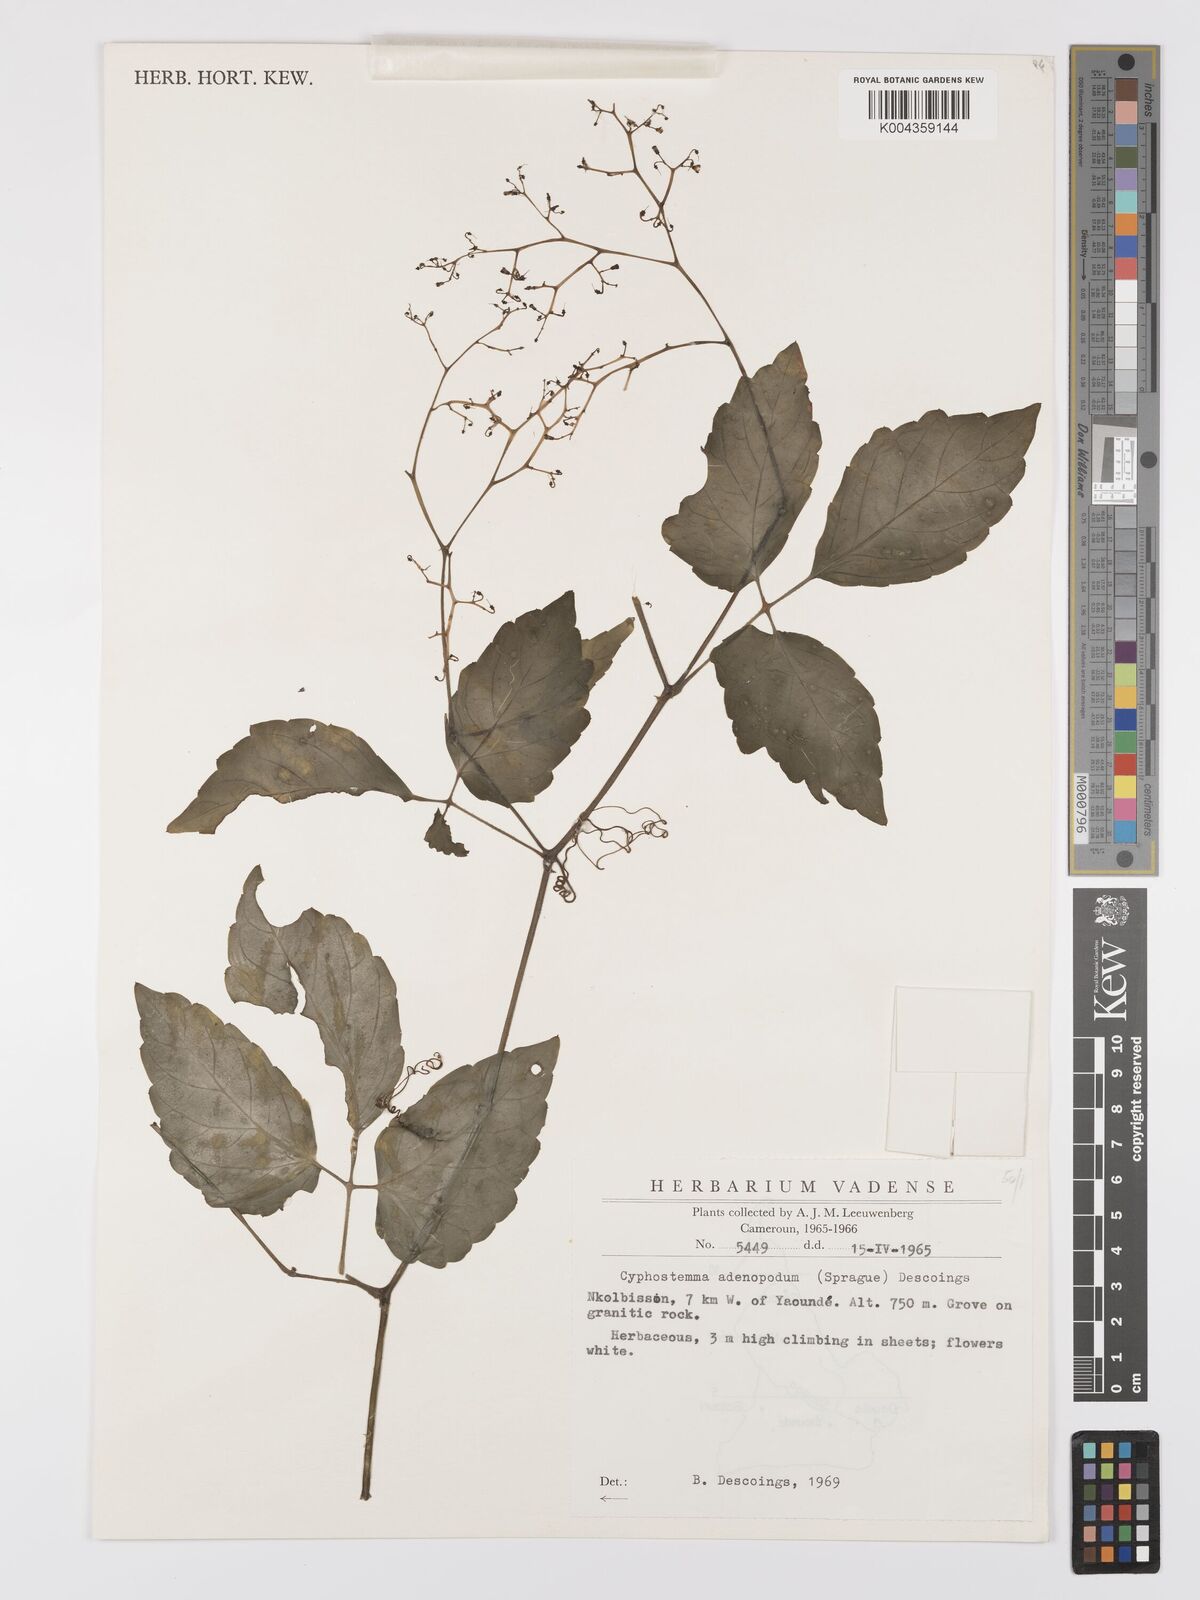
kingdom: Plantae
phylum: Tracheophyta
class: Magnoliopsida
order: Vitales
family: Vitaceae
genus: Cyphostemma
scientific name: Cyphostemma adenopodum
